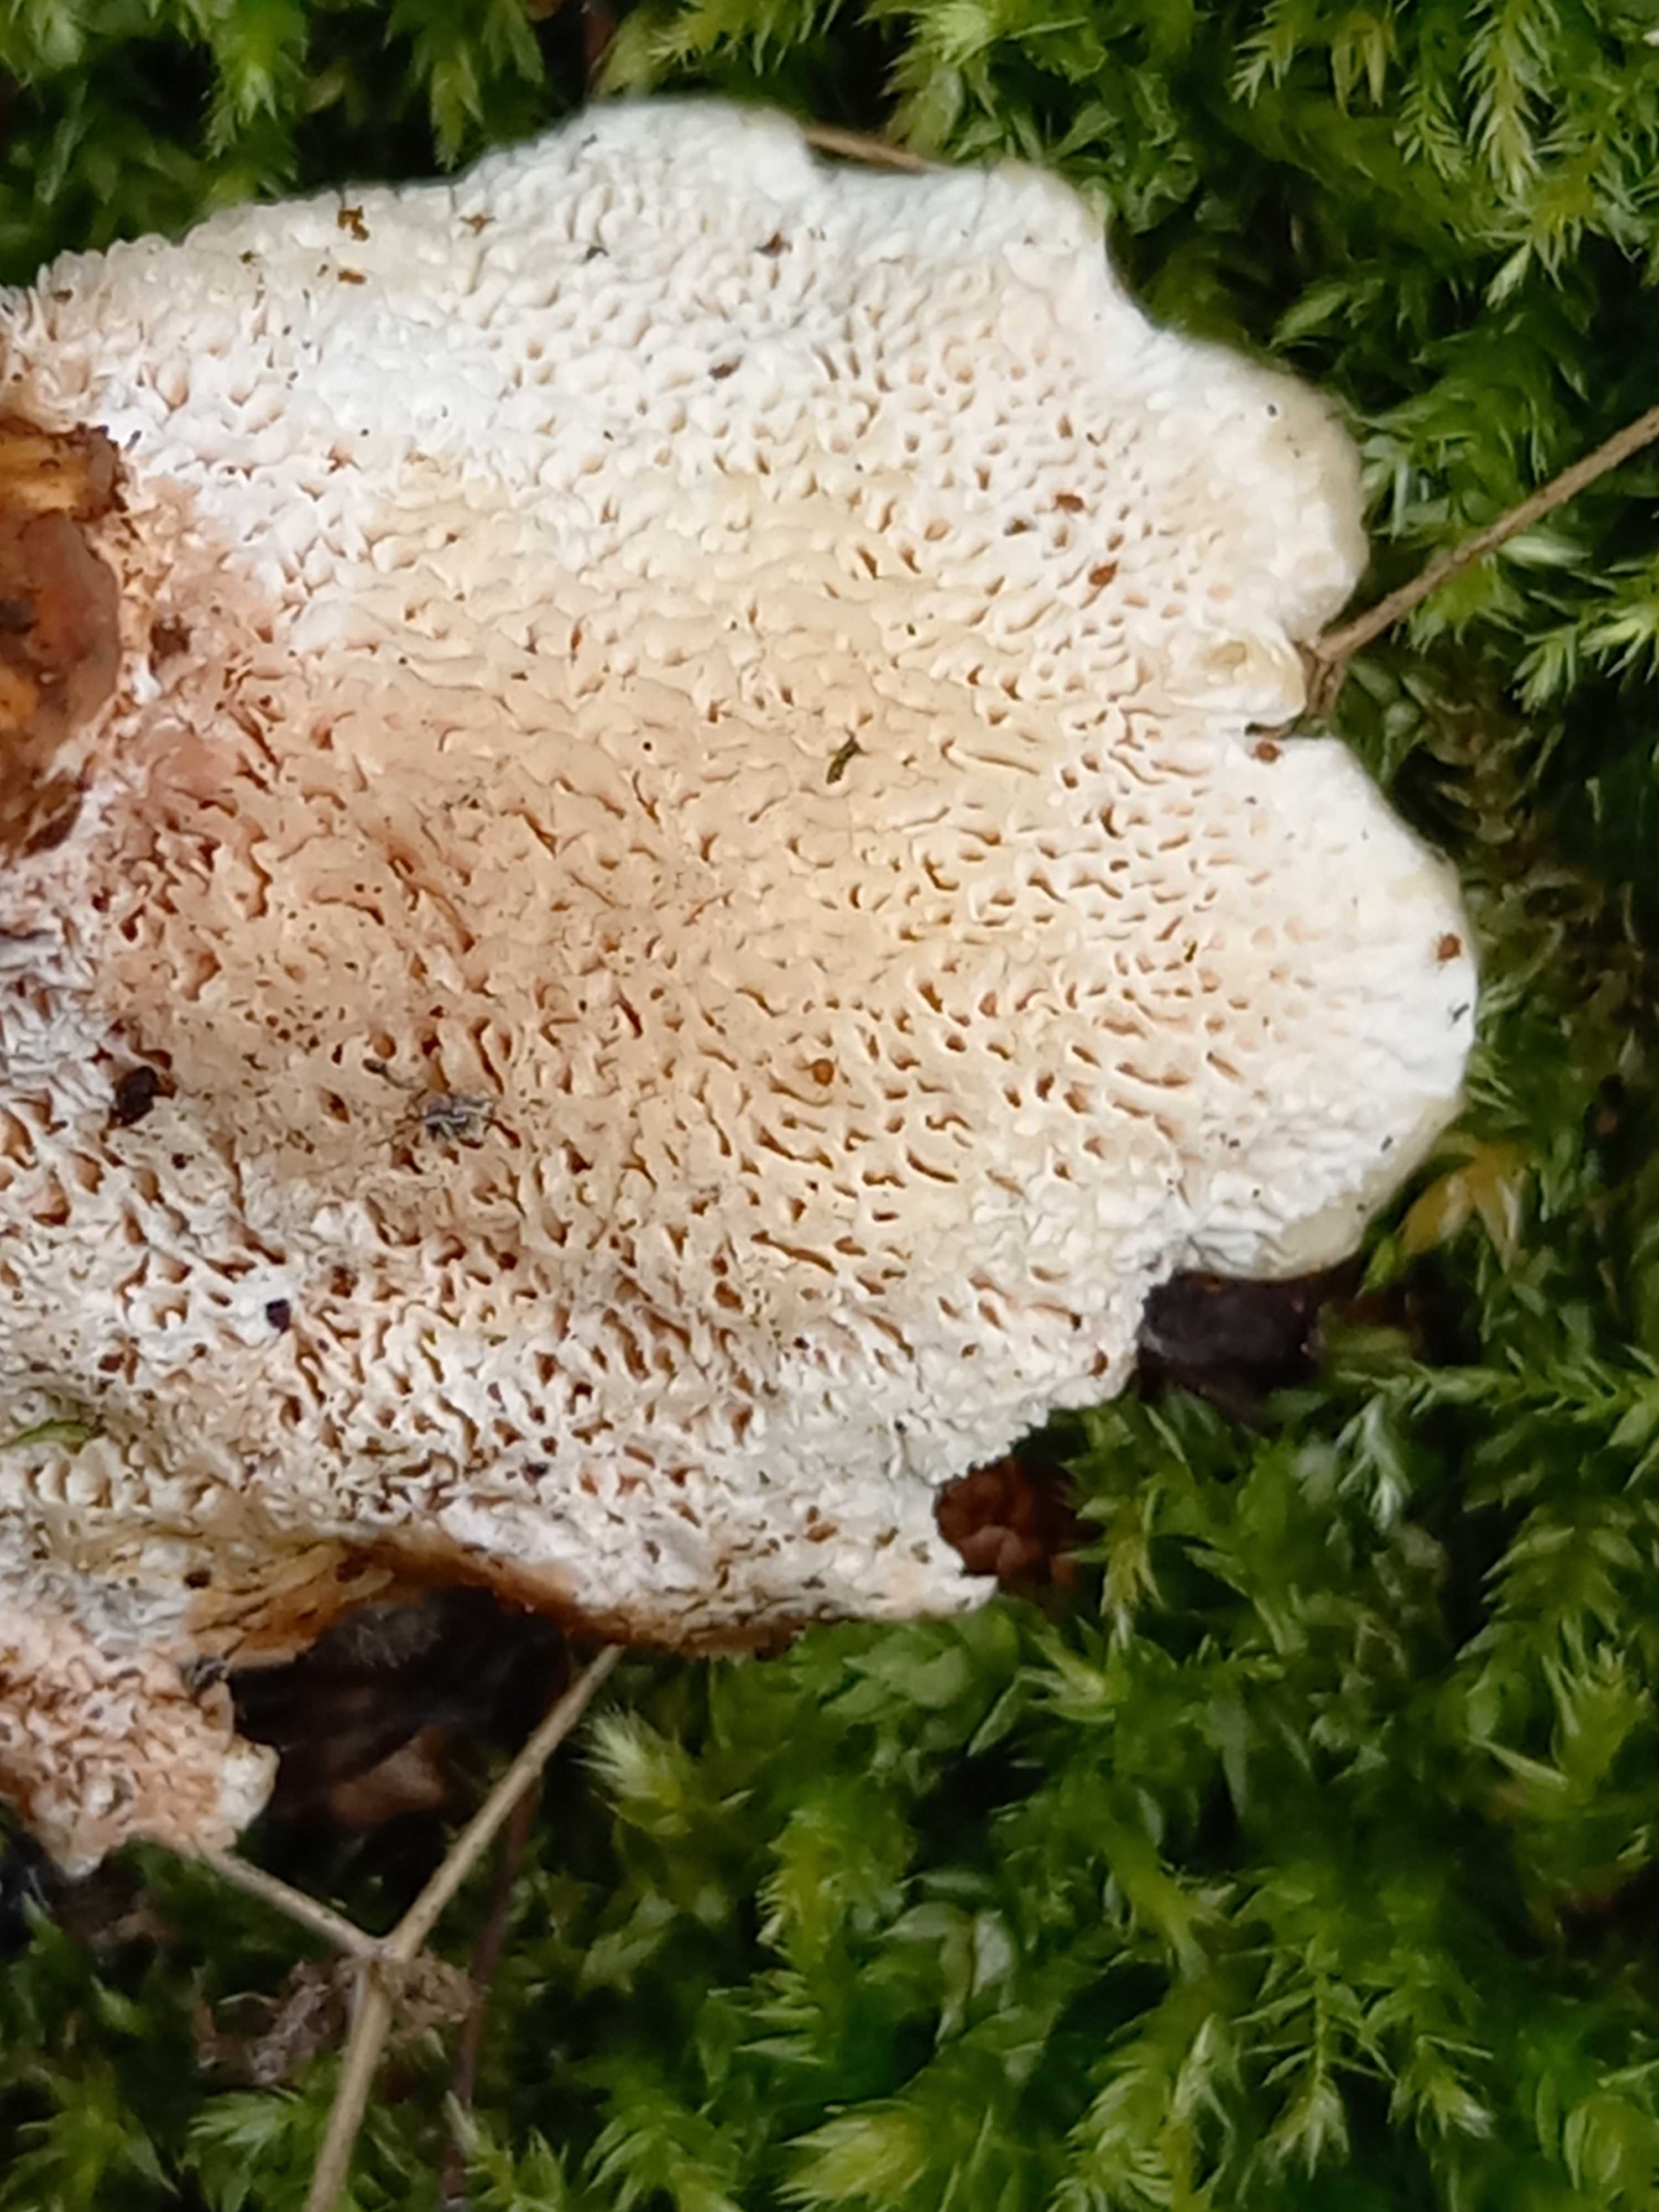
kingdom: Fungi
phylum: Basidiomycota
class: Agaricomycetes
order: Polyporales
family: Podoscyphaceae
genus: Abortiporus
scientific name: Abortiporus biennis
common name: rødmende pjalteporesvamp
